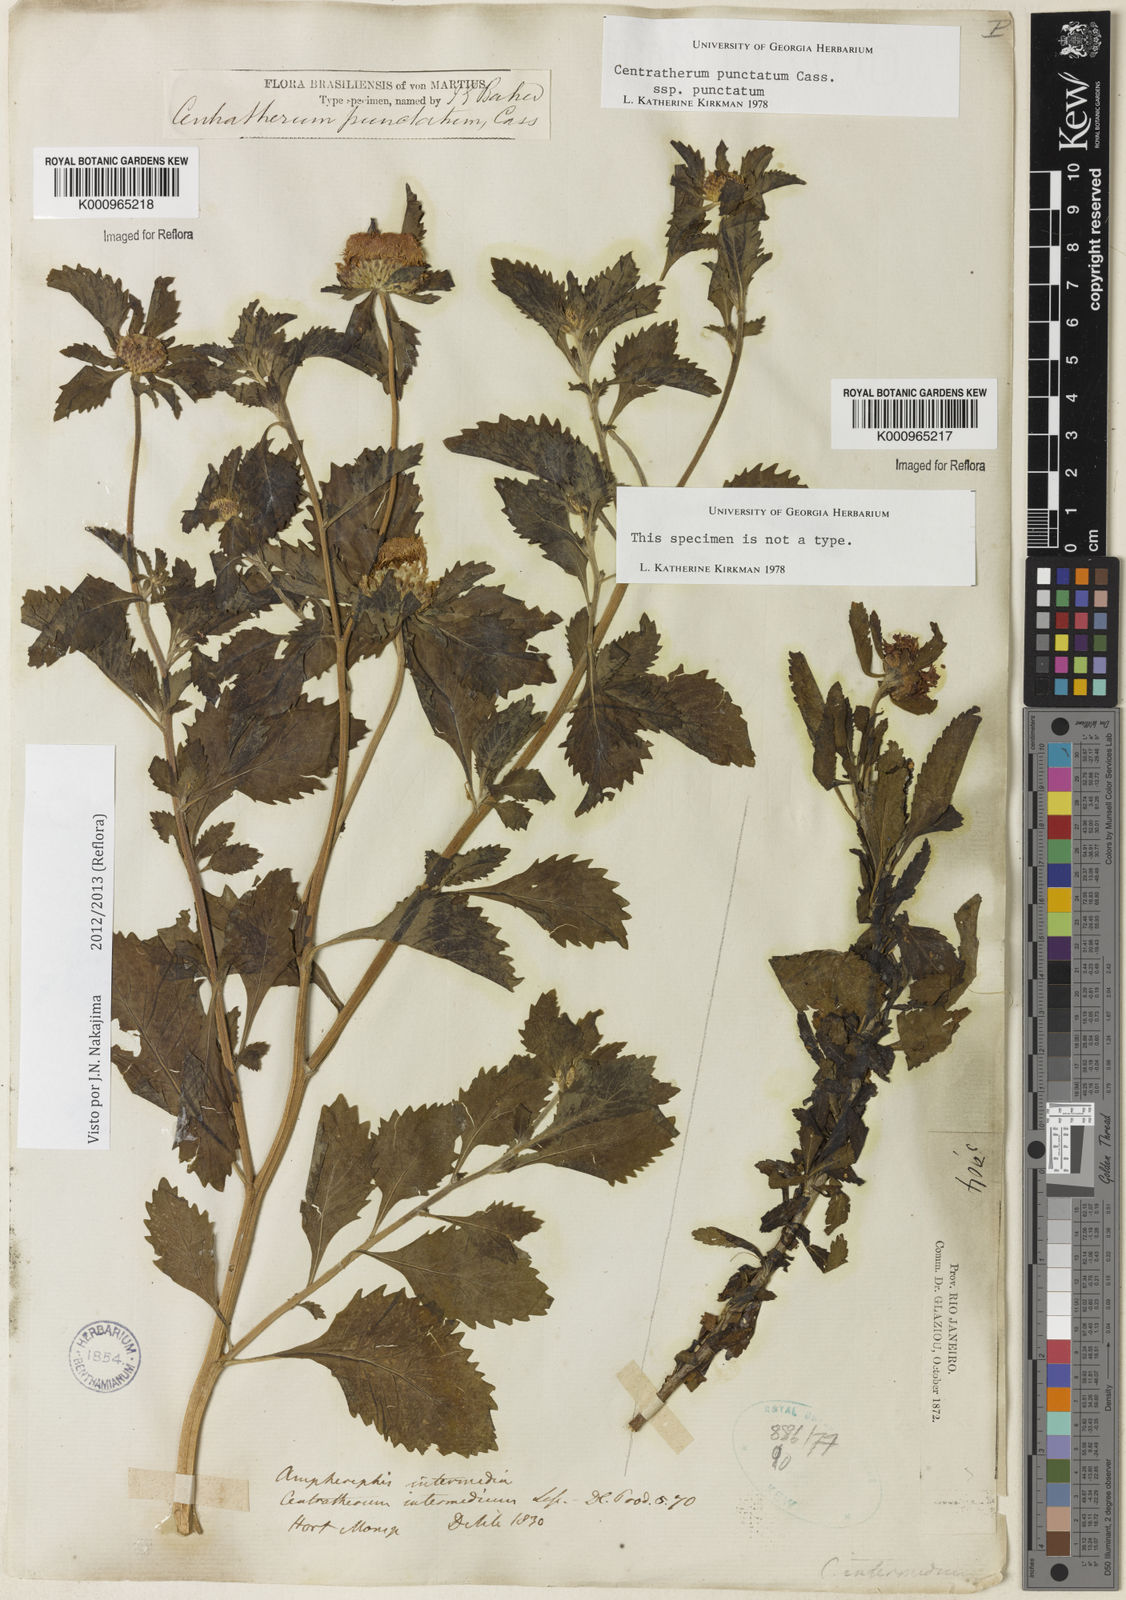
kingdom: Plantae
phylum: Tracheophyta
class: Magnoliopsida
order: Asterales
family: Asteraceae
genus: Centratherum
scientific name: Centratherum punctatum
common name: Larkdaisy
